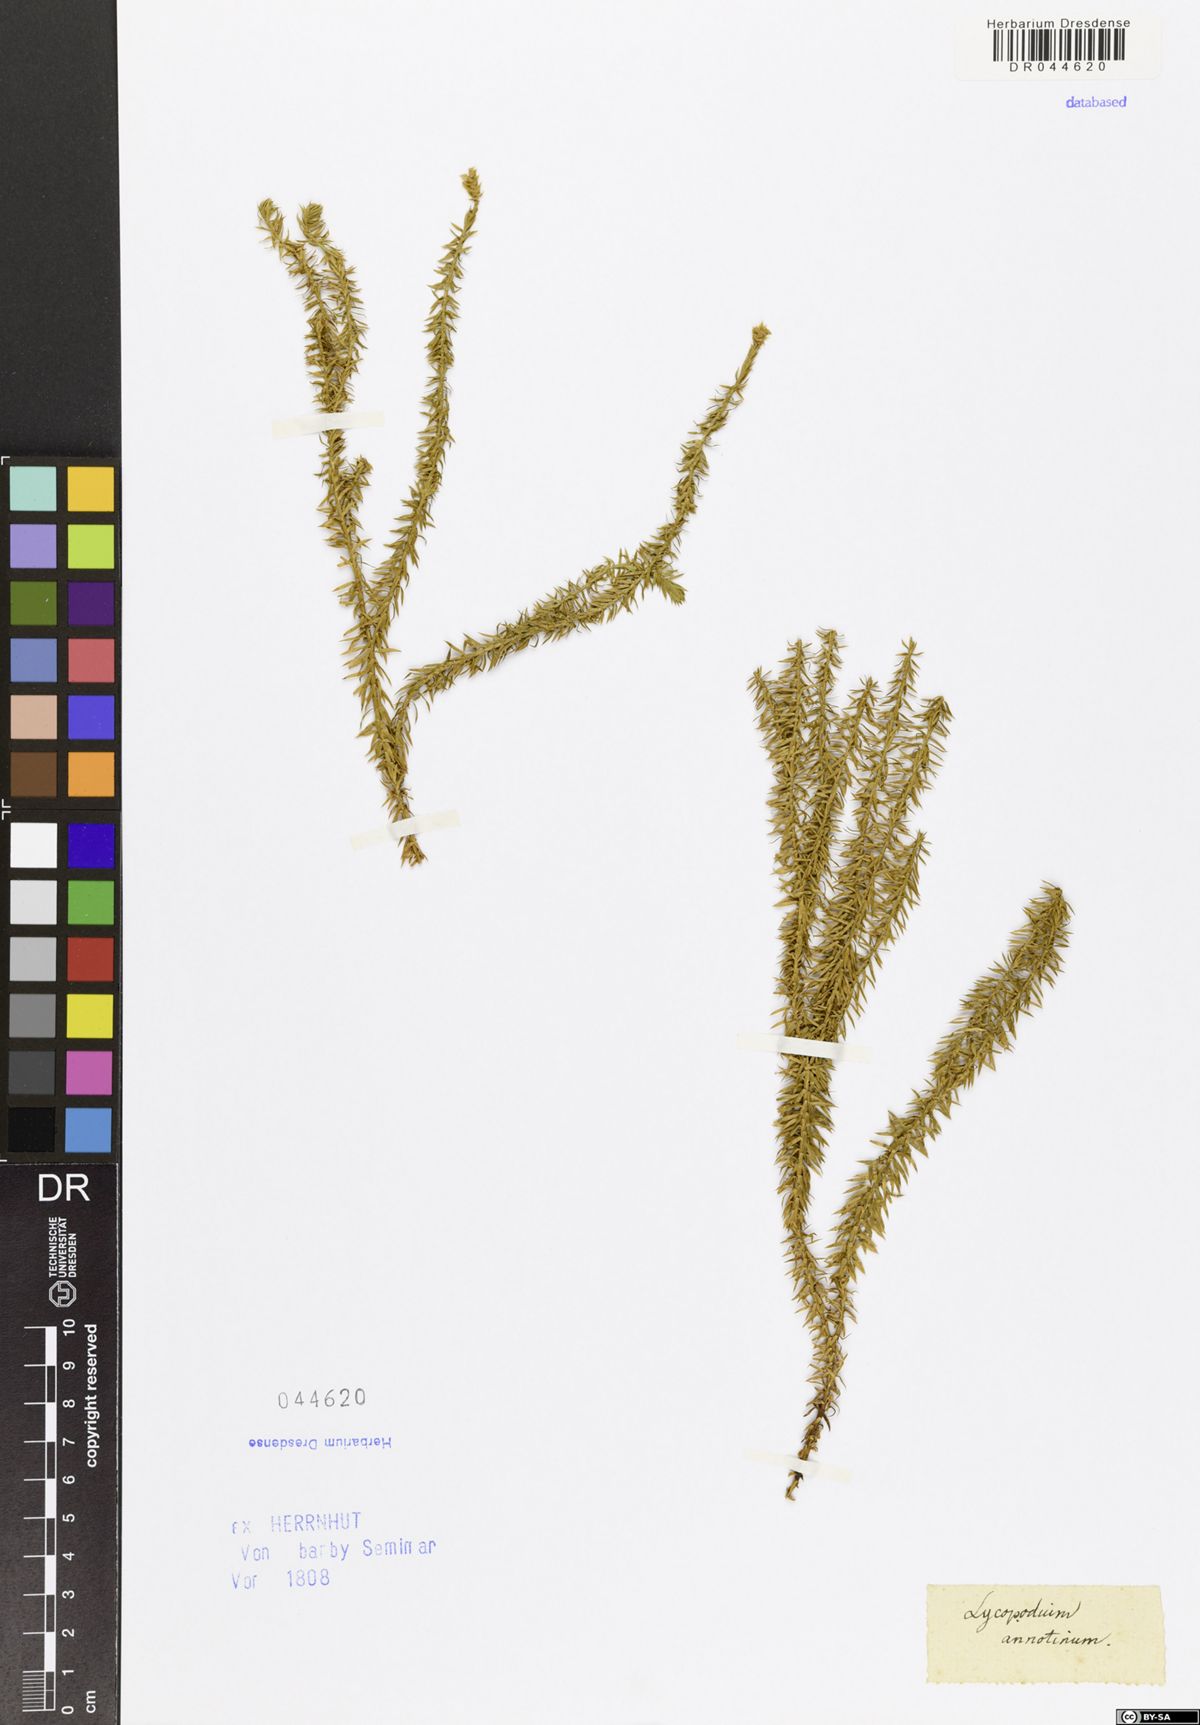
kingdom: Plantae
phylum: Tracheophyta
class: Lycopodiopsida
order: Lycopodiales
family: Lycopodiaceae
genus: Spinulum
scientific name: Spinulum annotinum
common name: Interrupted club-moss
